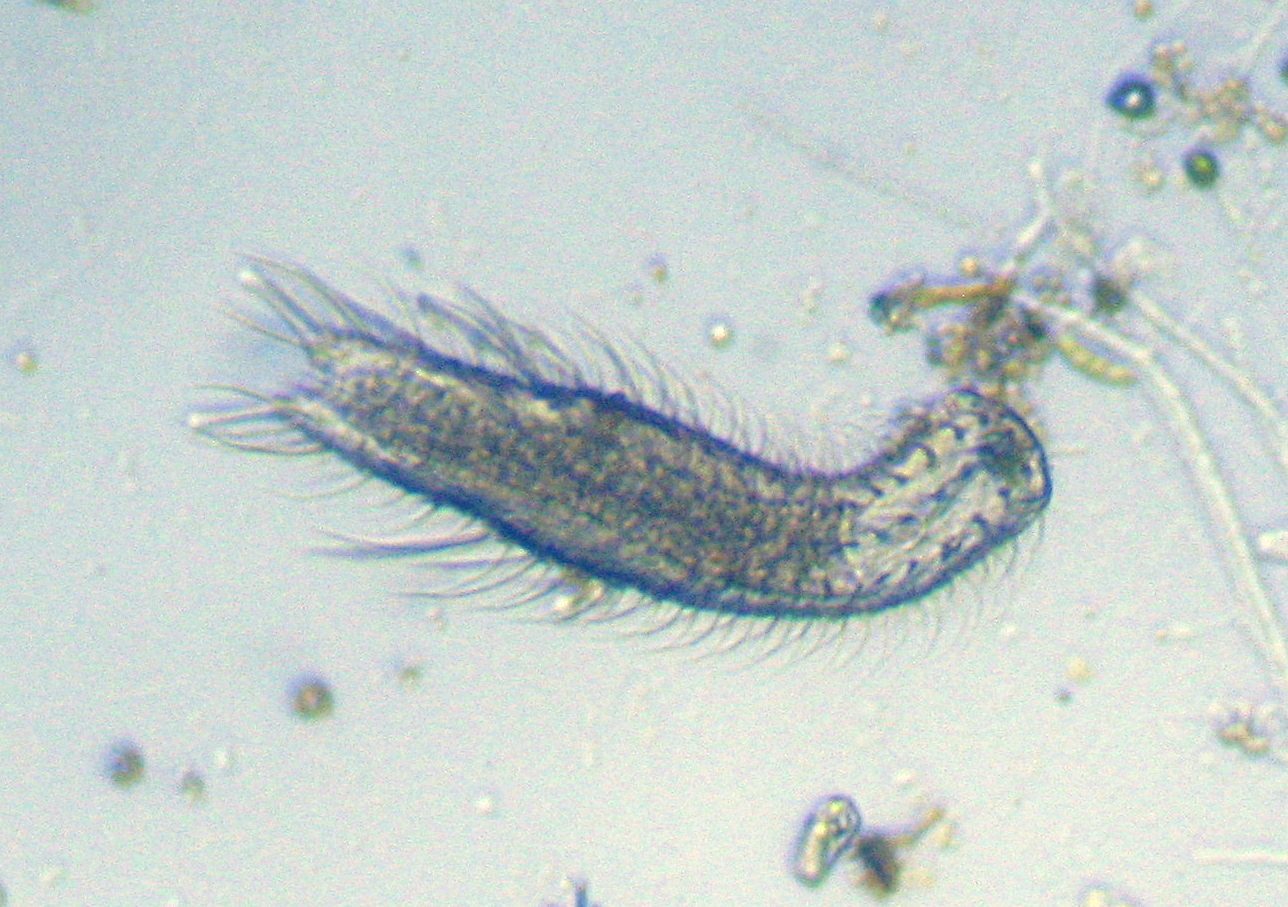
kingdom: Animalia
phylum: Gastrotricha
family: Chaetonotidae
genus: Chaetonotus
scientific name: Chaetonotus
